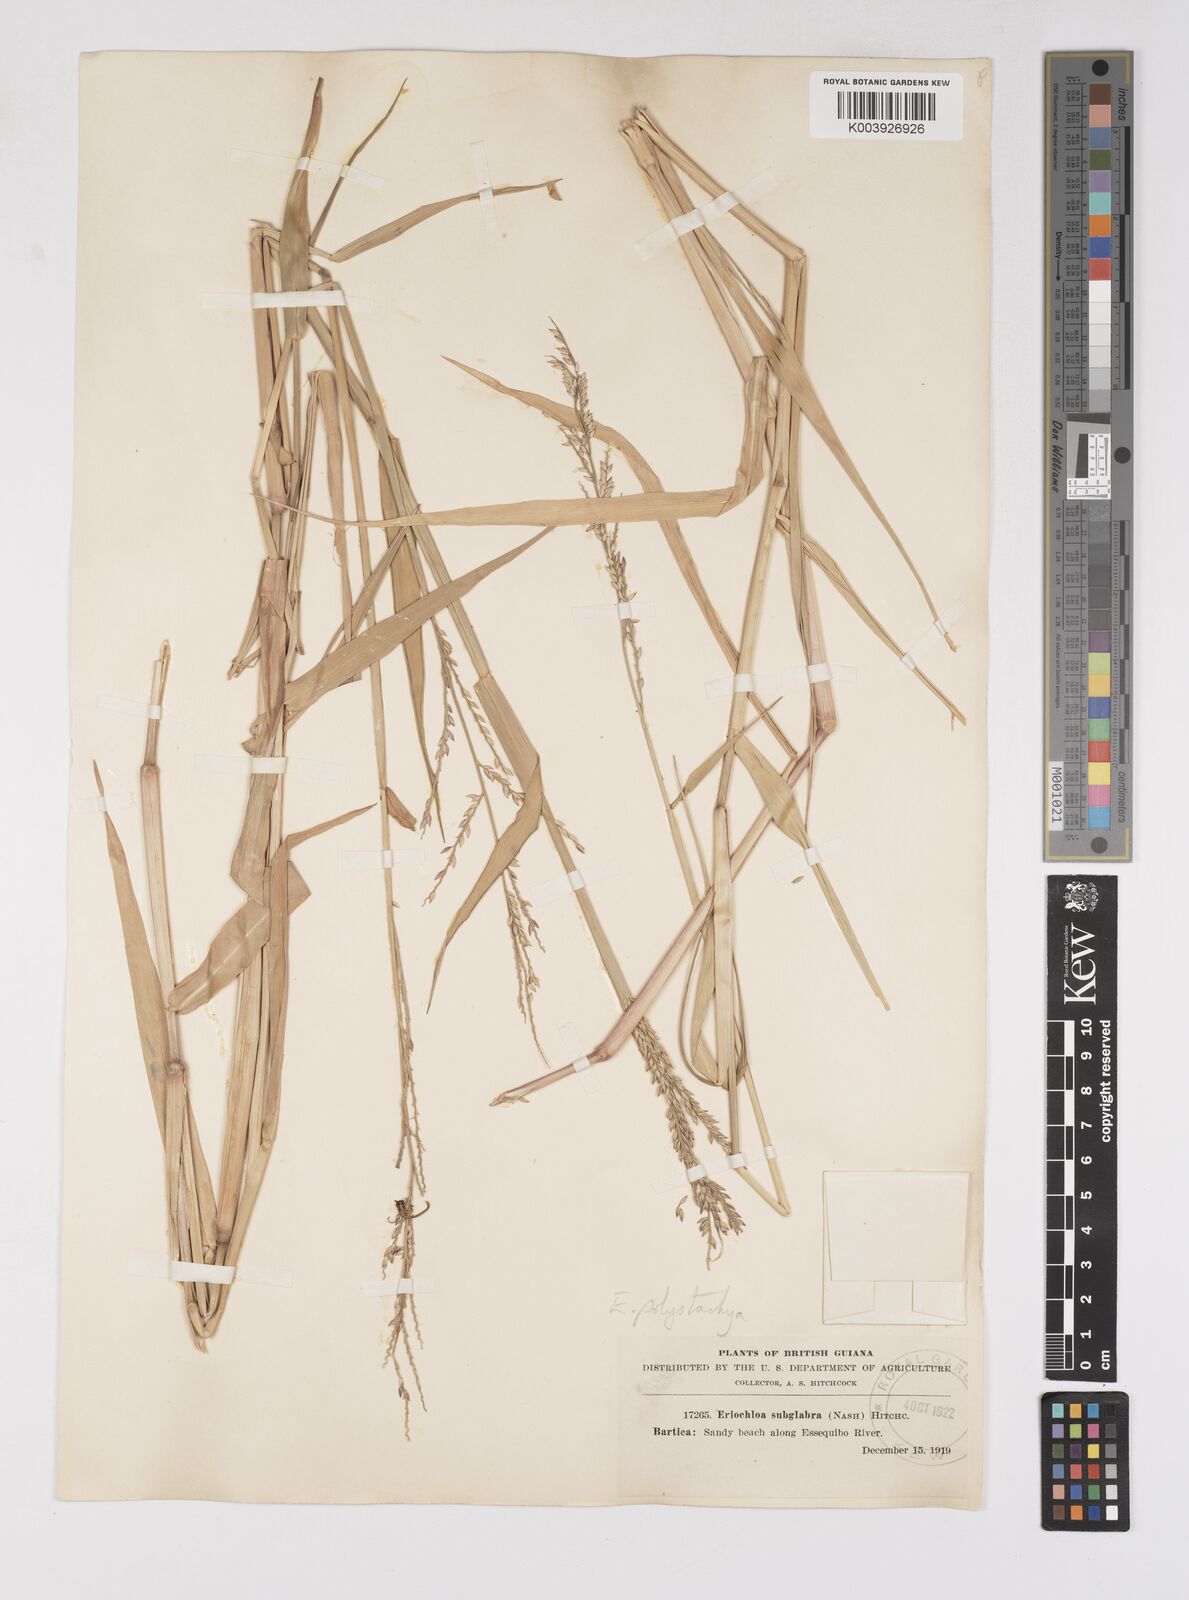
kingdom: Plantae
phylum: Tracheophyta
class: Liliopsida
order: Poales
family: Poaceae
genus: Urochloa
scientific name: Urochloa polystachya
